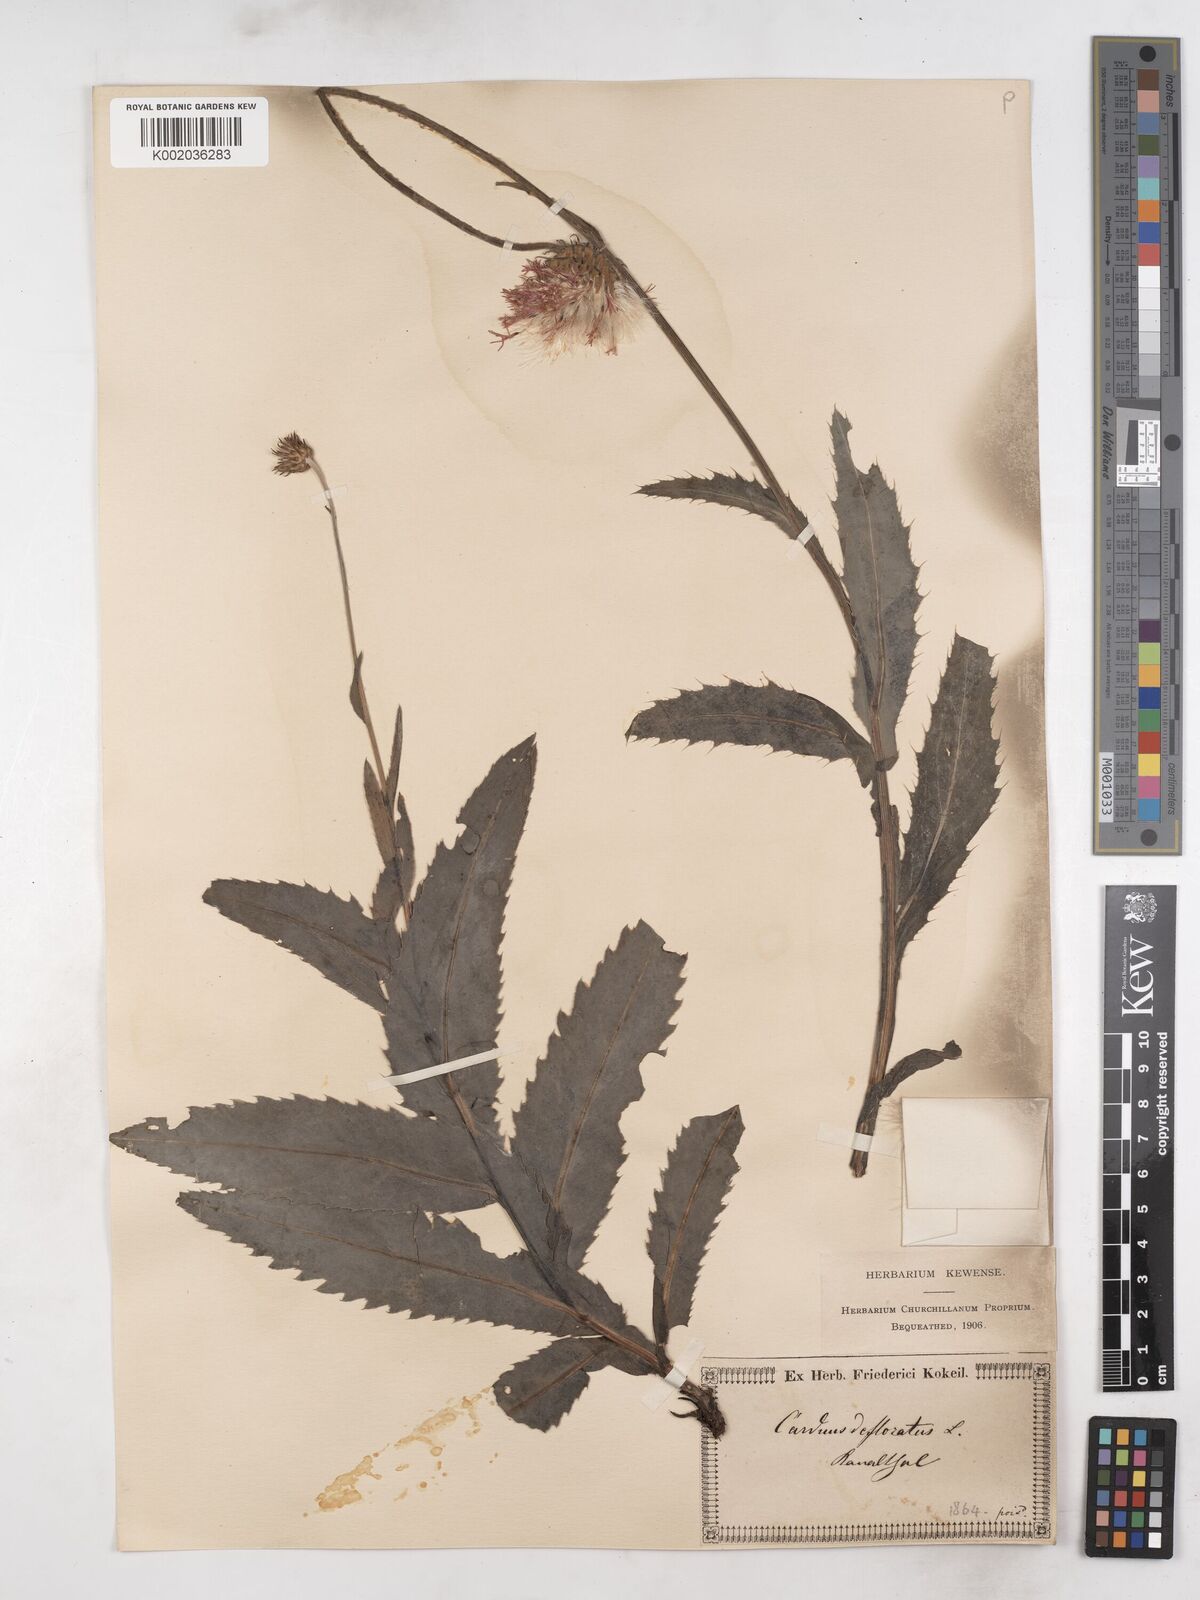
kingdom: Plantae
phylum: Tracheophyta
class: Magnoliopsida
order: Asterales
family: Asteraceae
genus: Carduus
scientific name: Carduus defloratus
